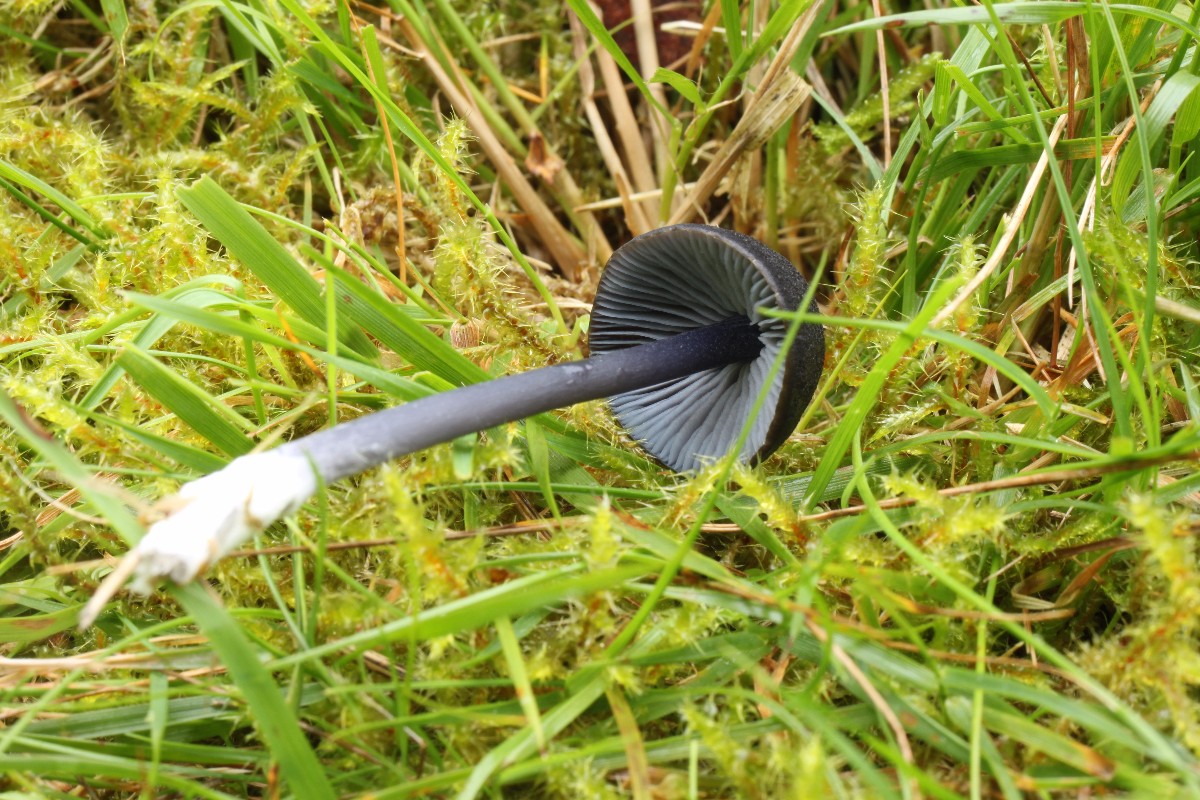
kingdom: Fungi
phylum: Basidiomycota
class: Agaricomycetes
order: Agaricales
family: Entolomataceae
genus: Entoloma
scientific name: Entoloma chalybeum
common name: blåbladet rødblad
